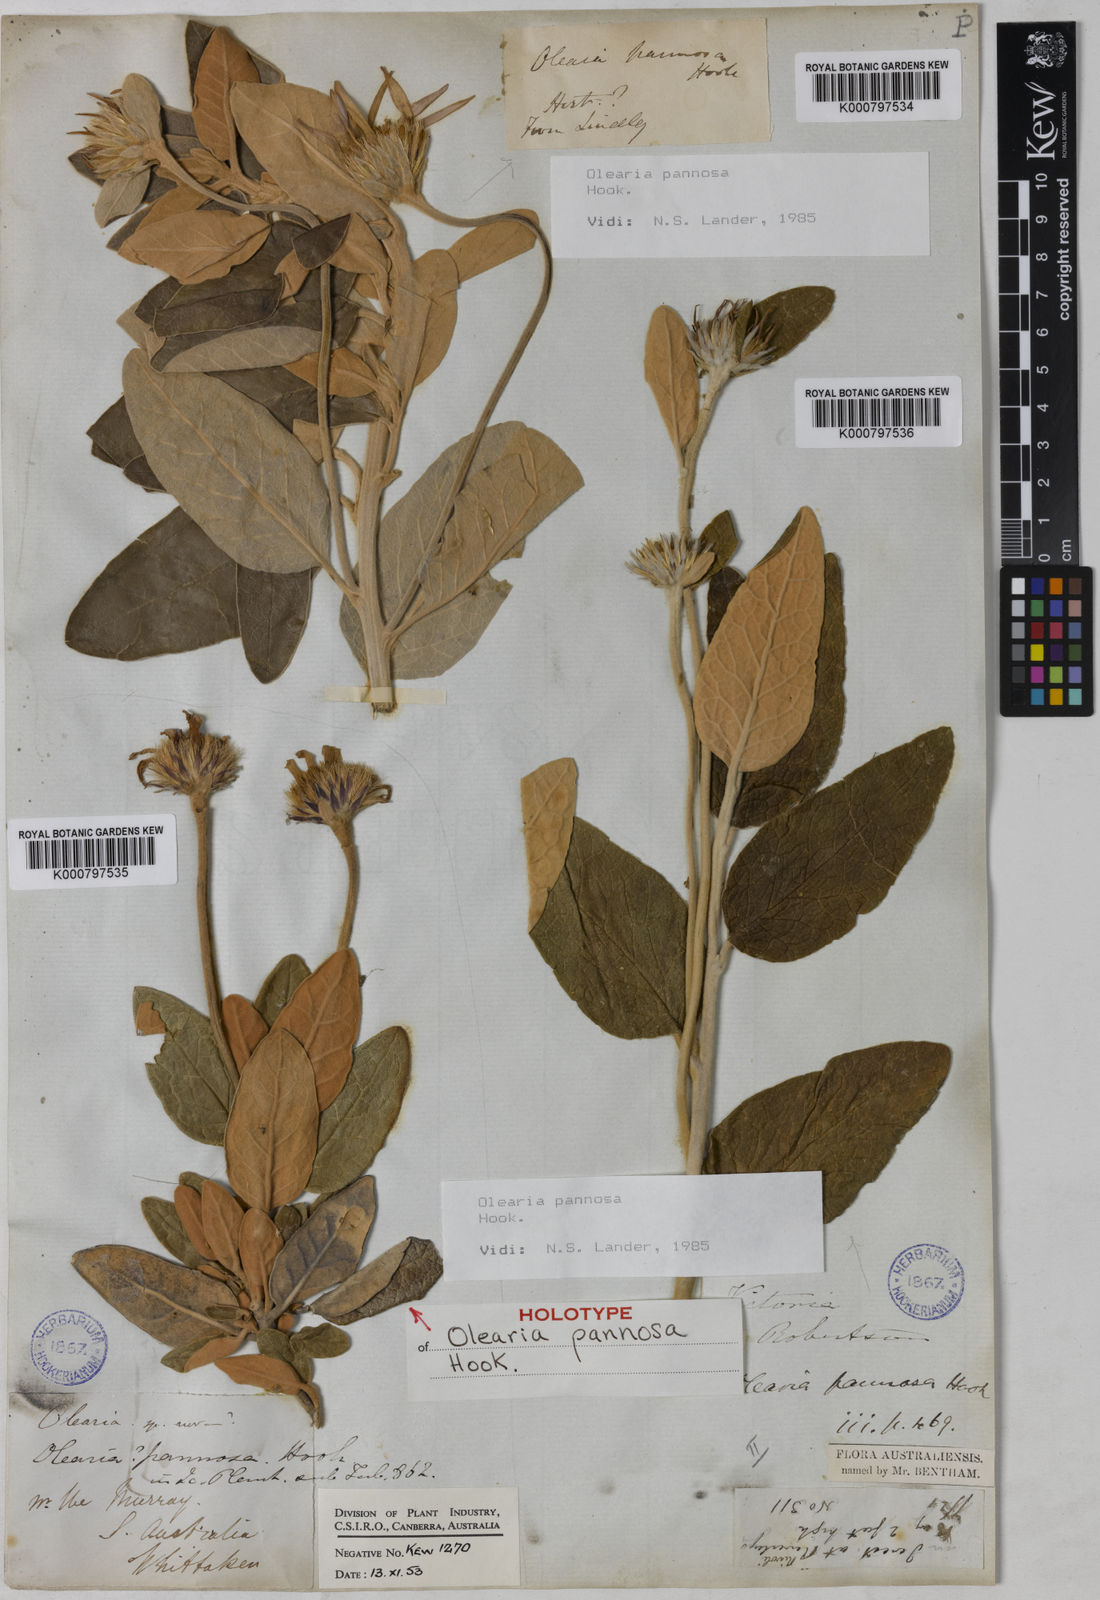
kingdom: Plantae
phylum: Tracheophyta
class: Magnoliopsida
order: Asterales
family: Asteraceae
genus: Olearia
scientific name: Olearia pannosa
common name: Velvet daisybush
